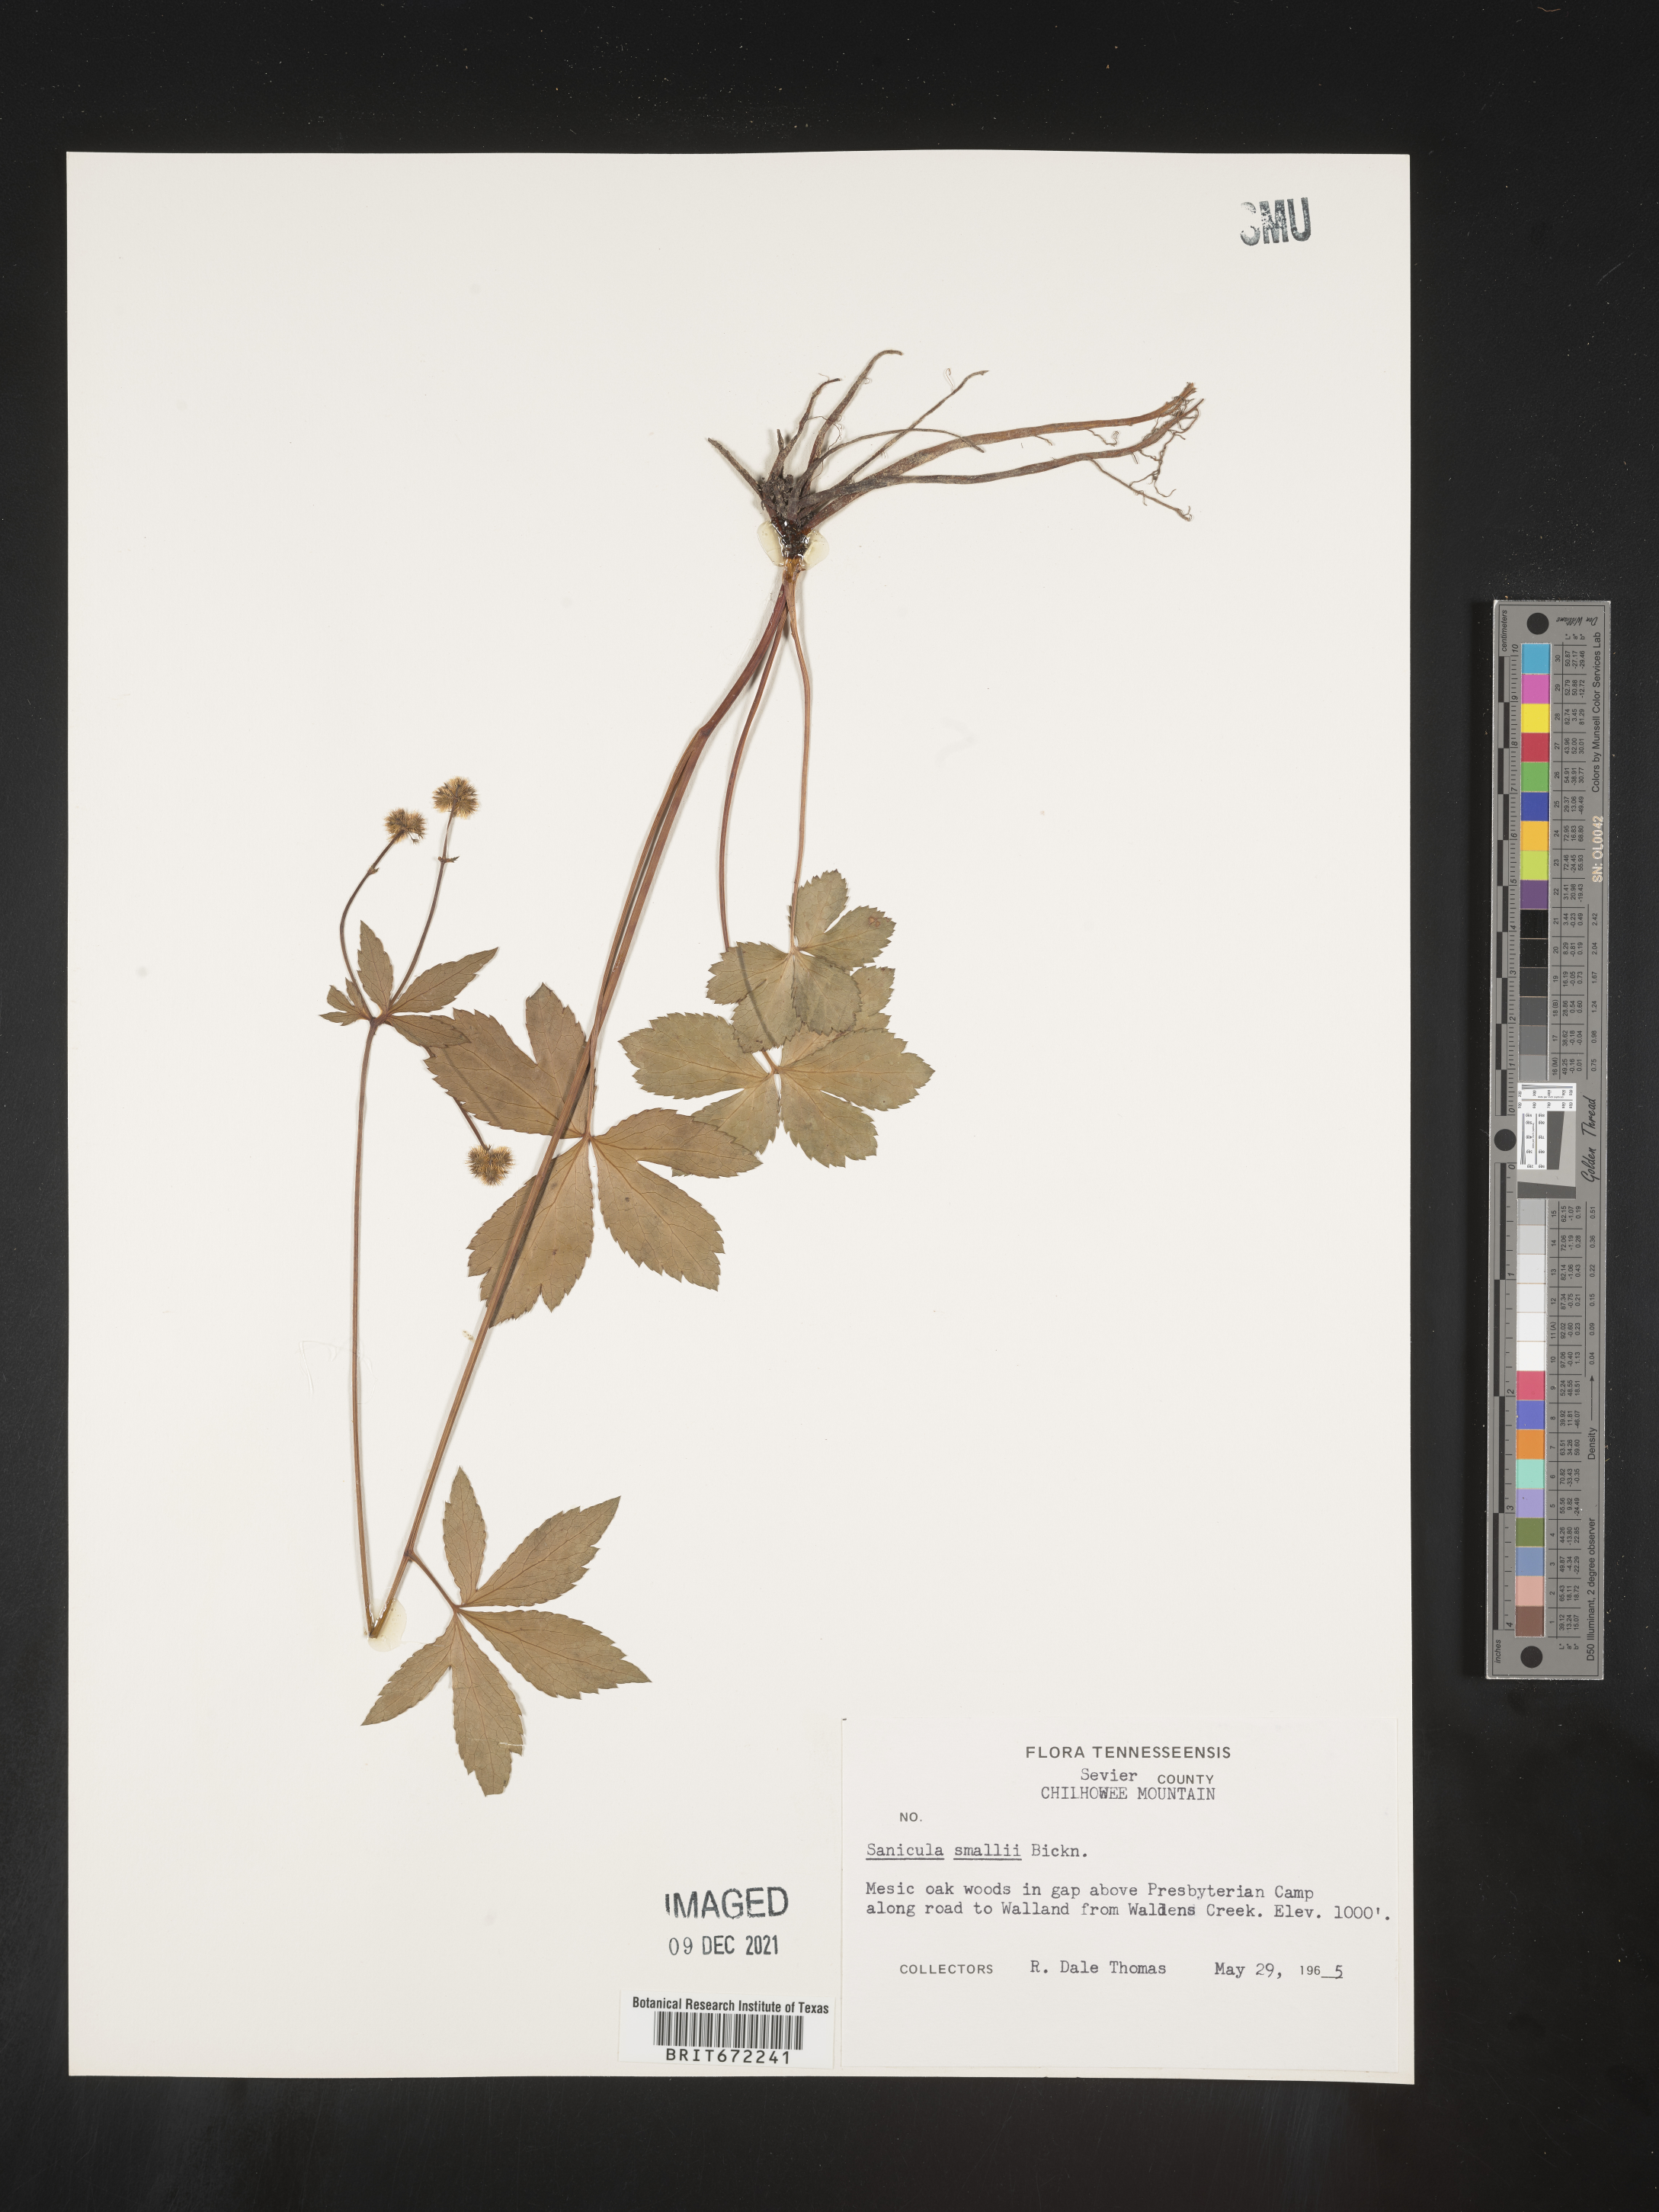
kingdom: Plantae
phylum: Tracheophyta
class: Magnoliopsida
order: Apiales
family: Apiaceae
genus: Sanicula
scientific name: Sanicula
